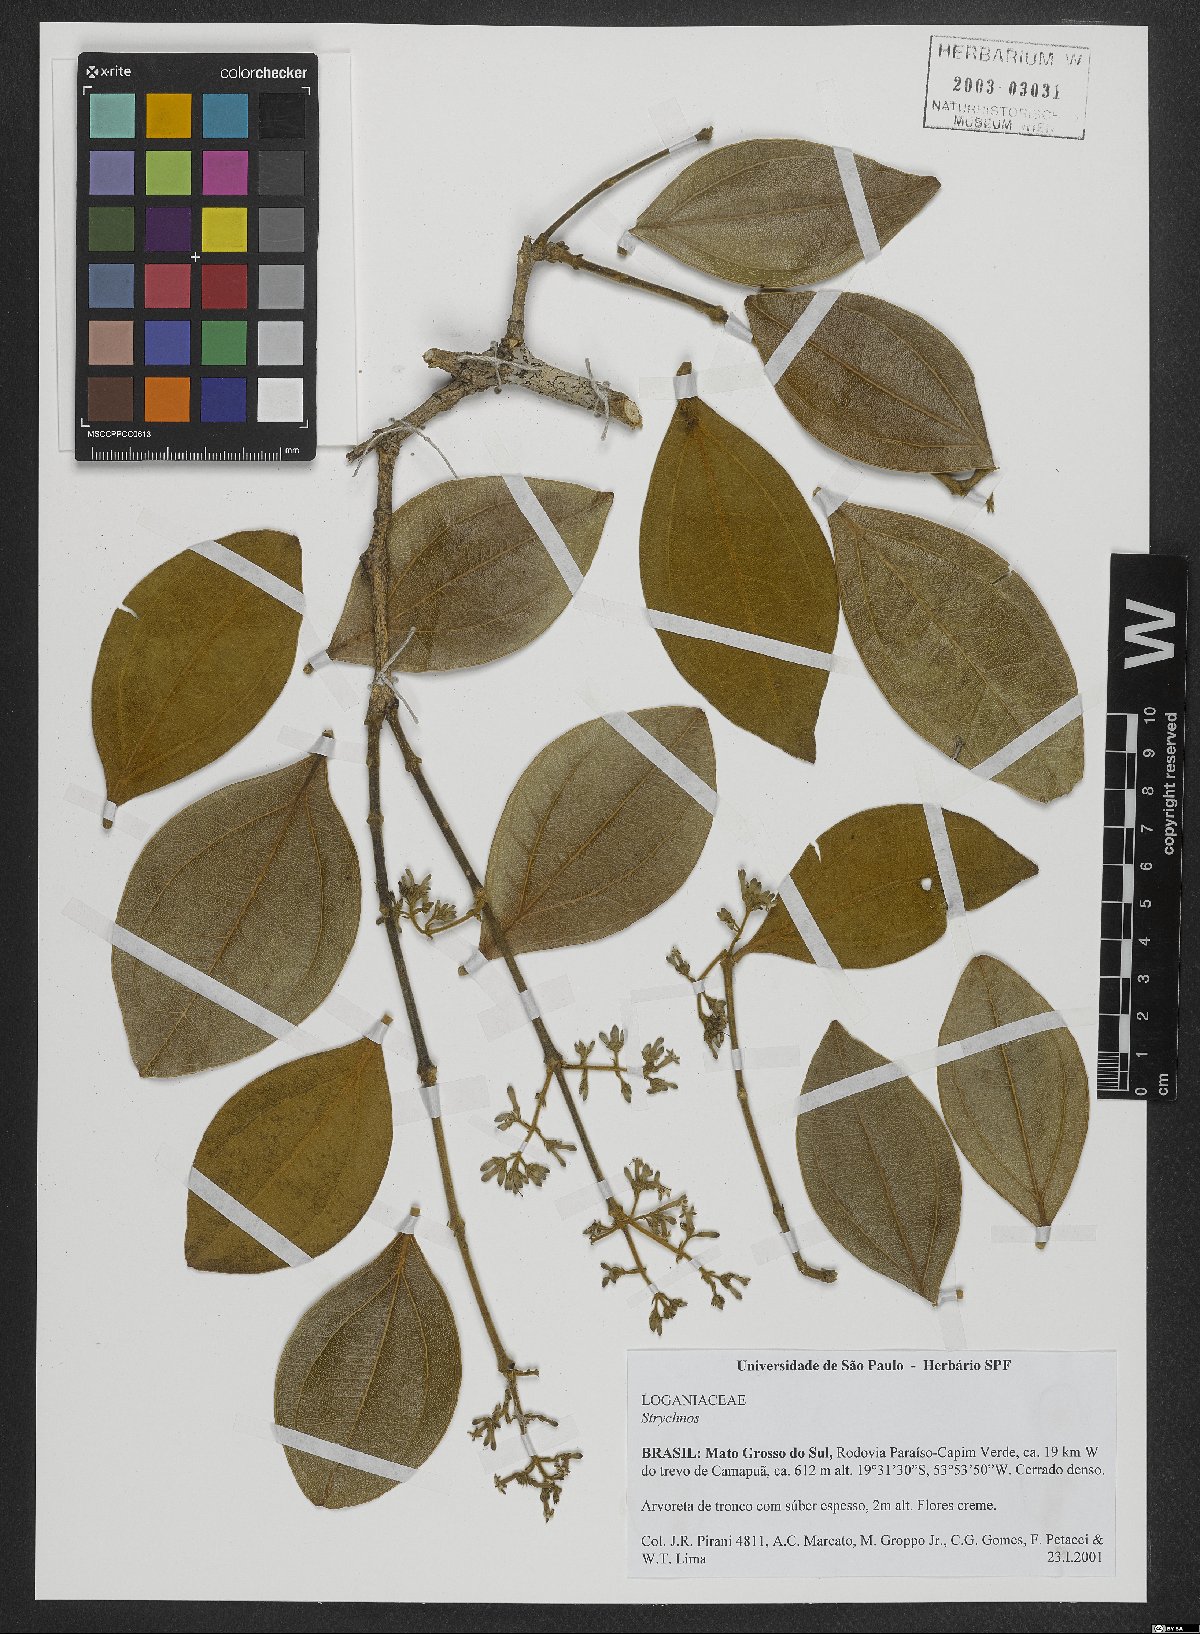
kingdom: Plantae
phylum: Tracheophyta
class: Magnoliopsida
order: Gentianales
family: Loganiaceae
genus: Strychnos
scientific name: Strychnos
